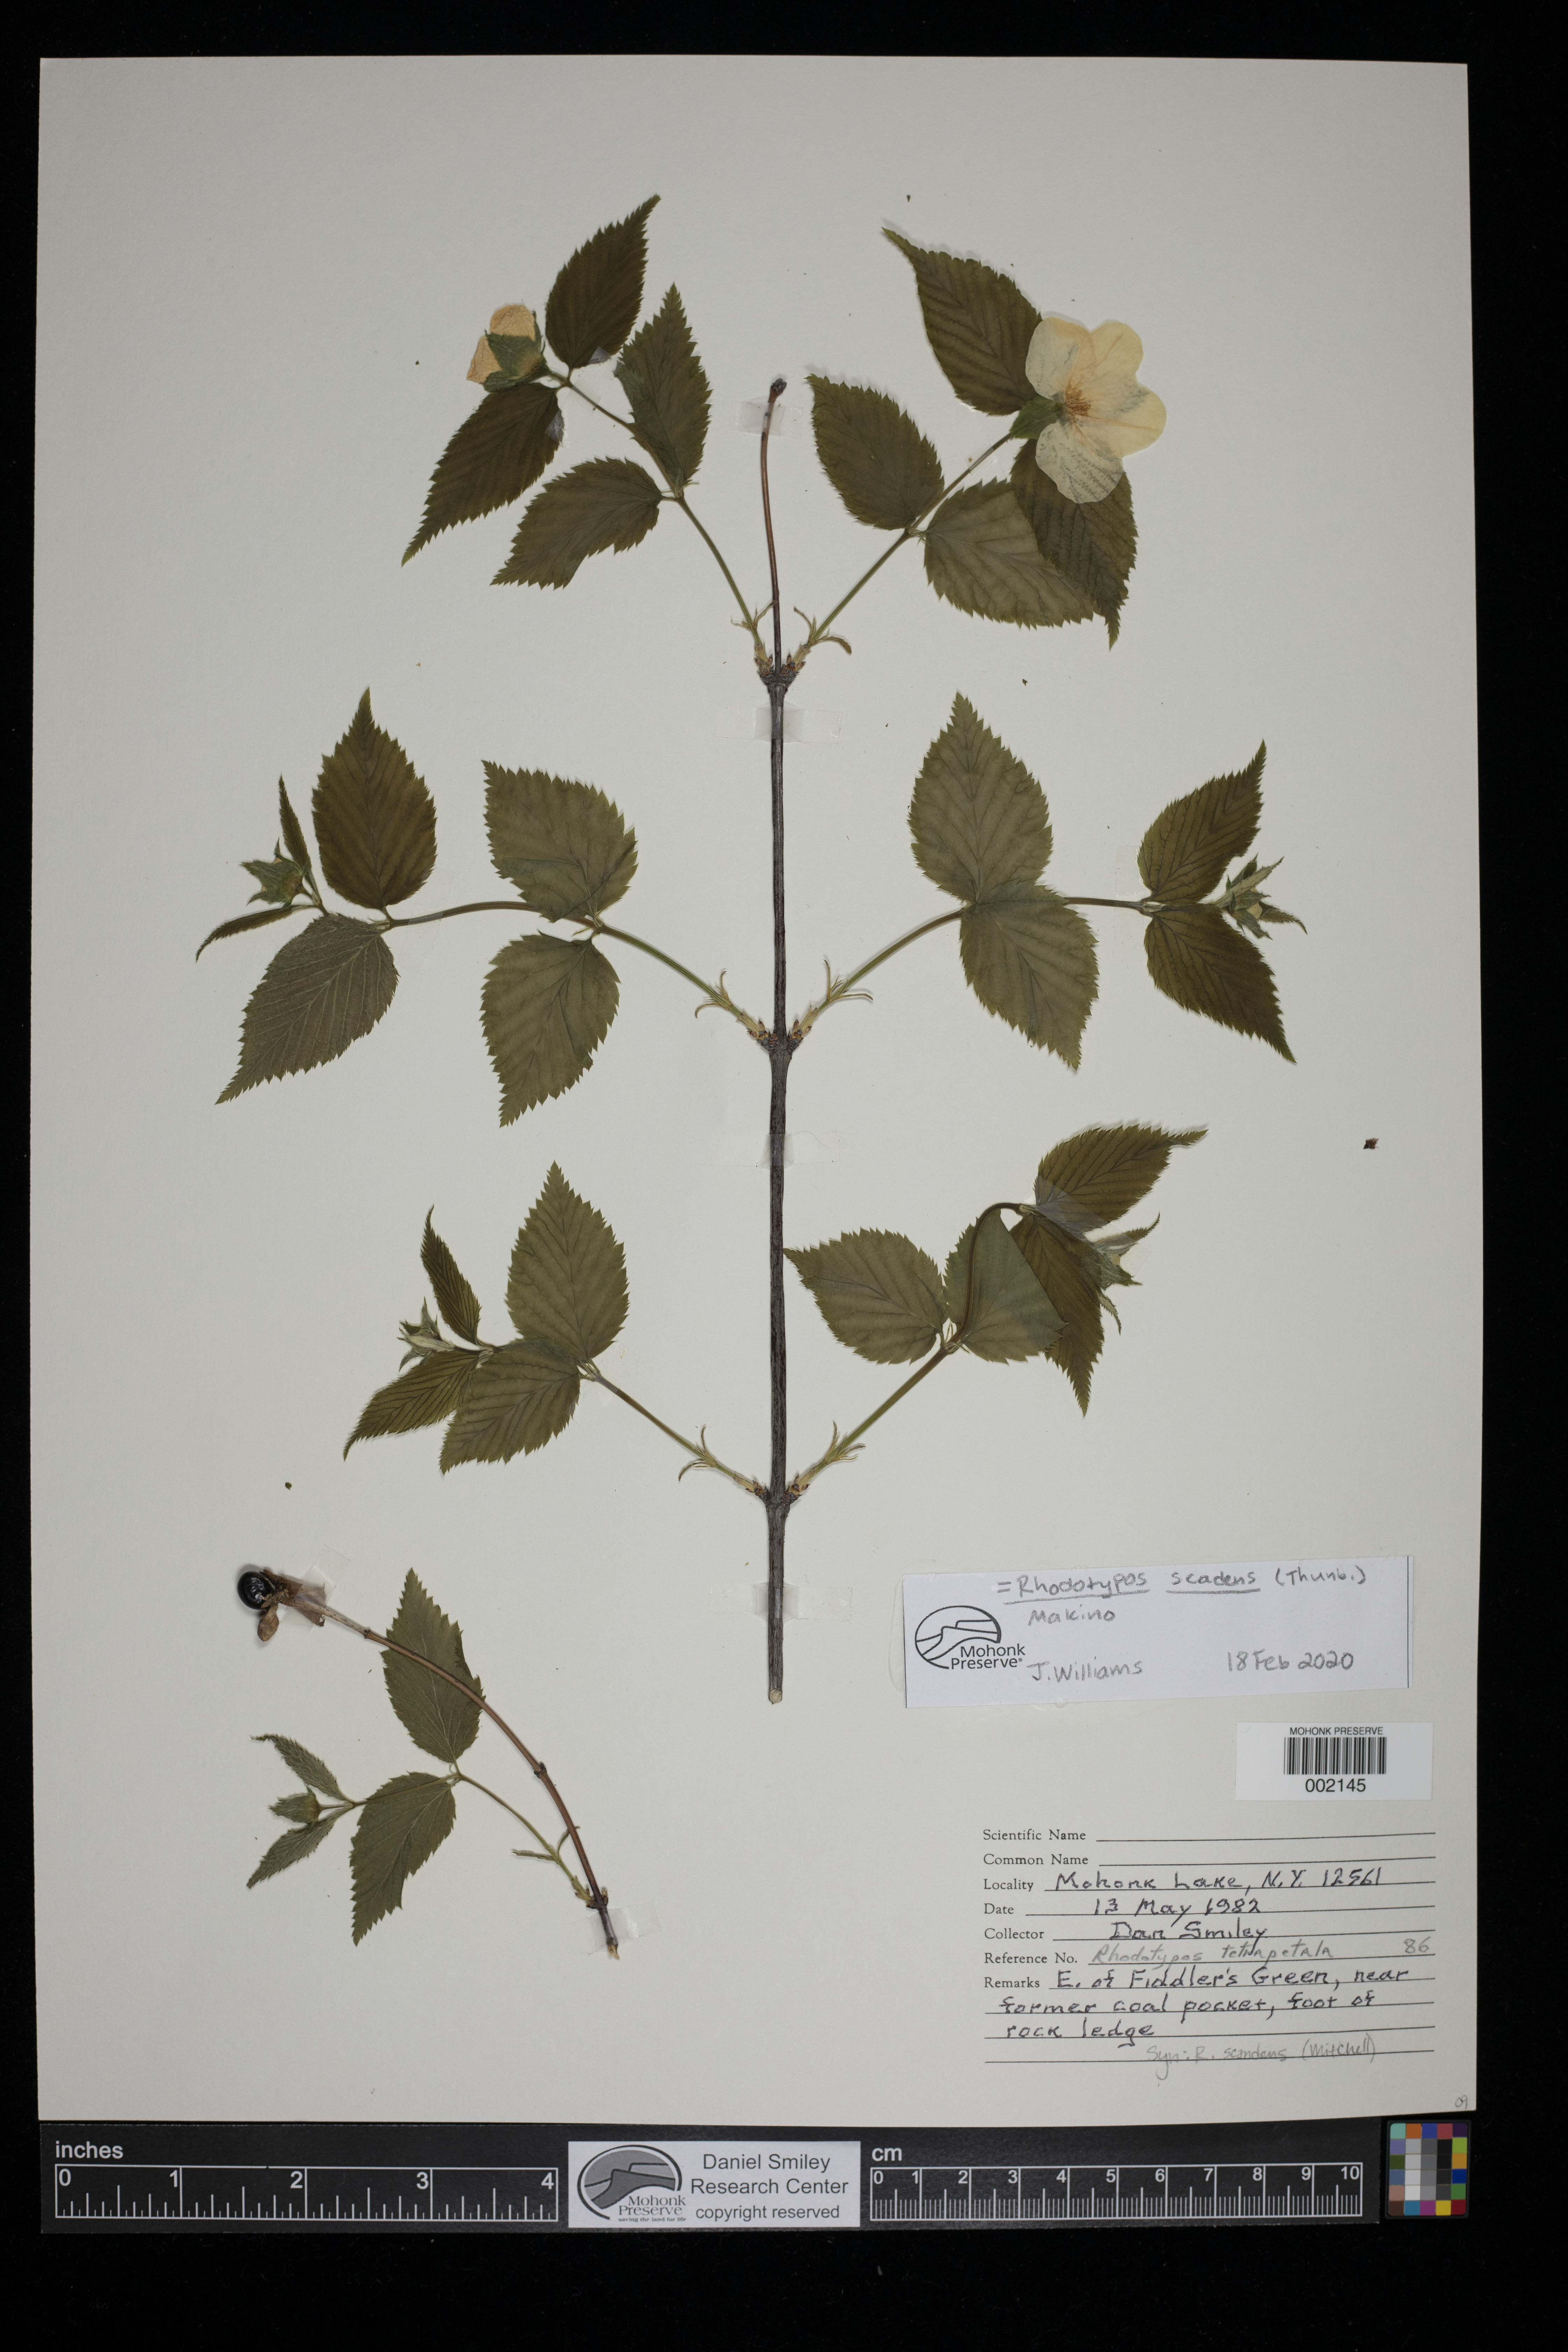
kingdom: Plantae
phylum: Tracheophyta
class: Magnoliopsida
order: Rosales
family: Rosaceae
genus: Rhodotypos
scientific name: Rhodotypos scandens
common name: Jetbead
